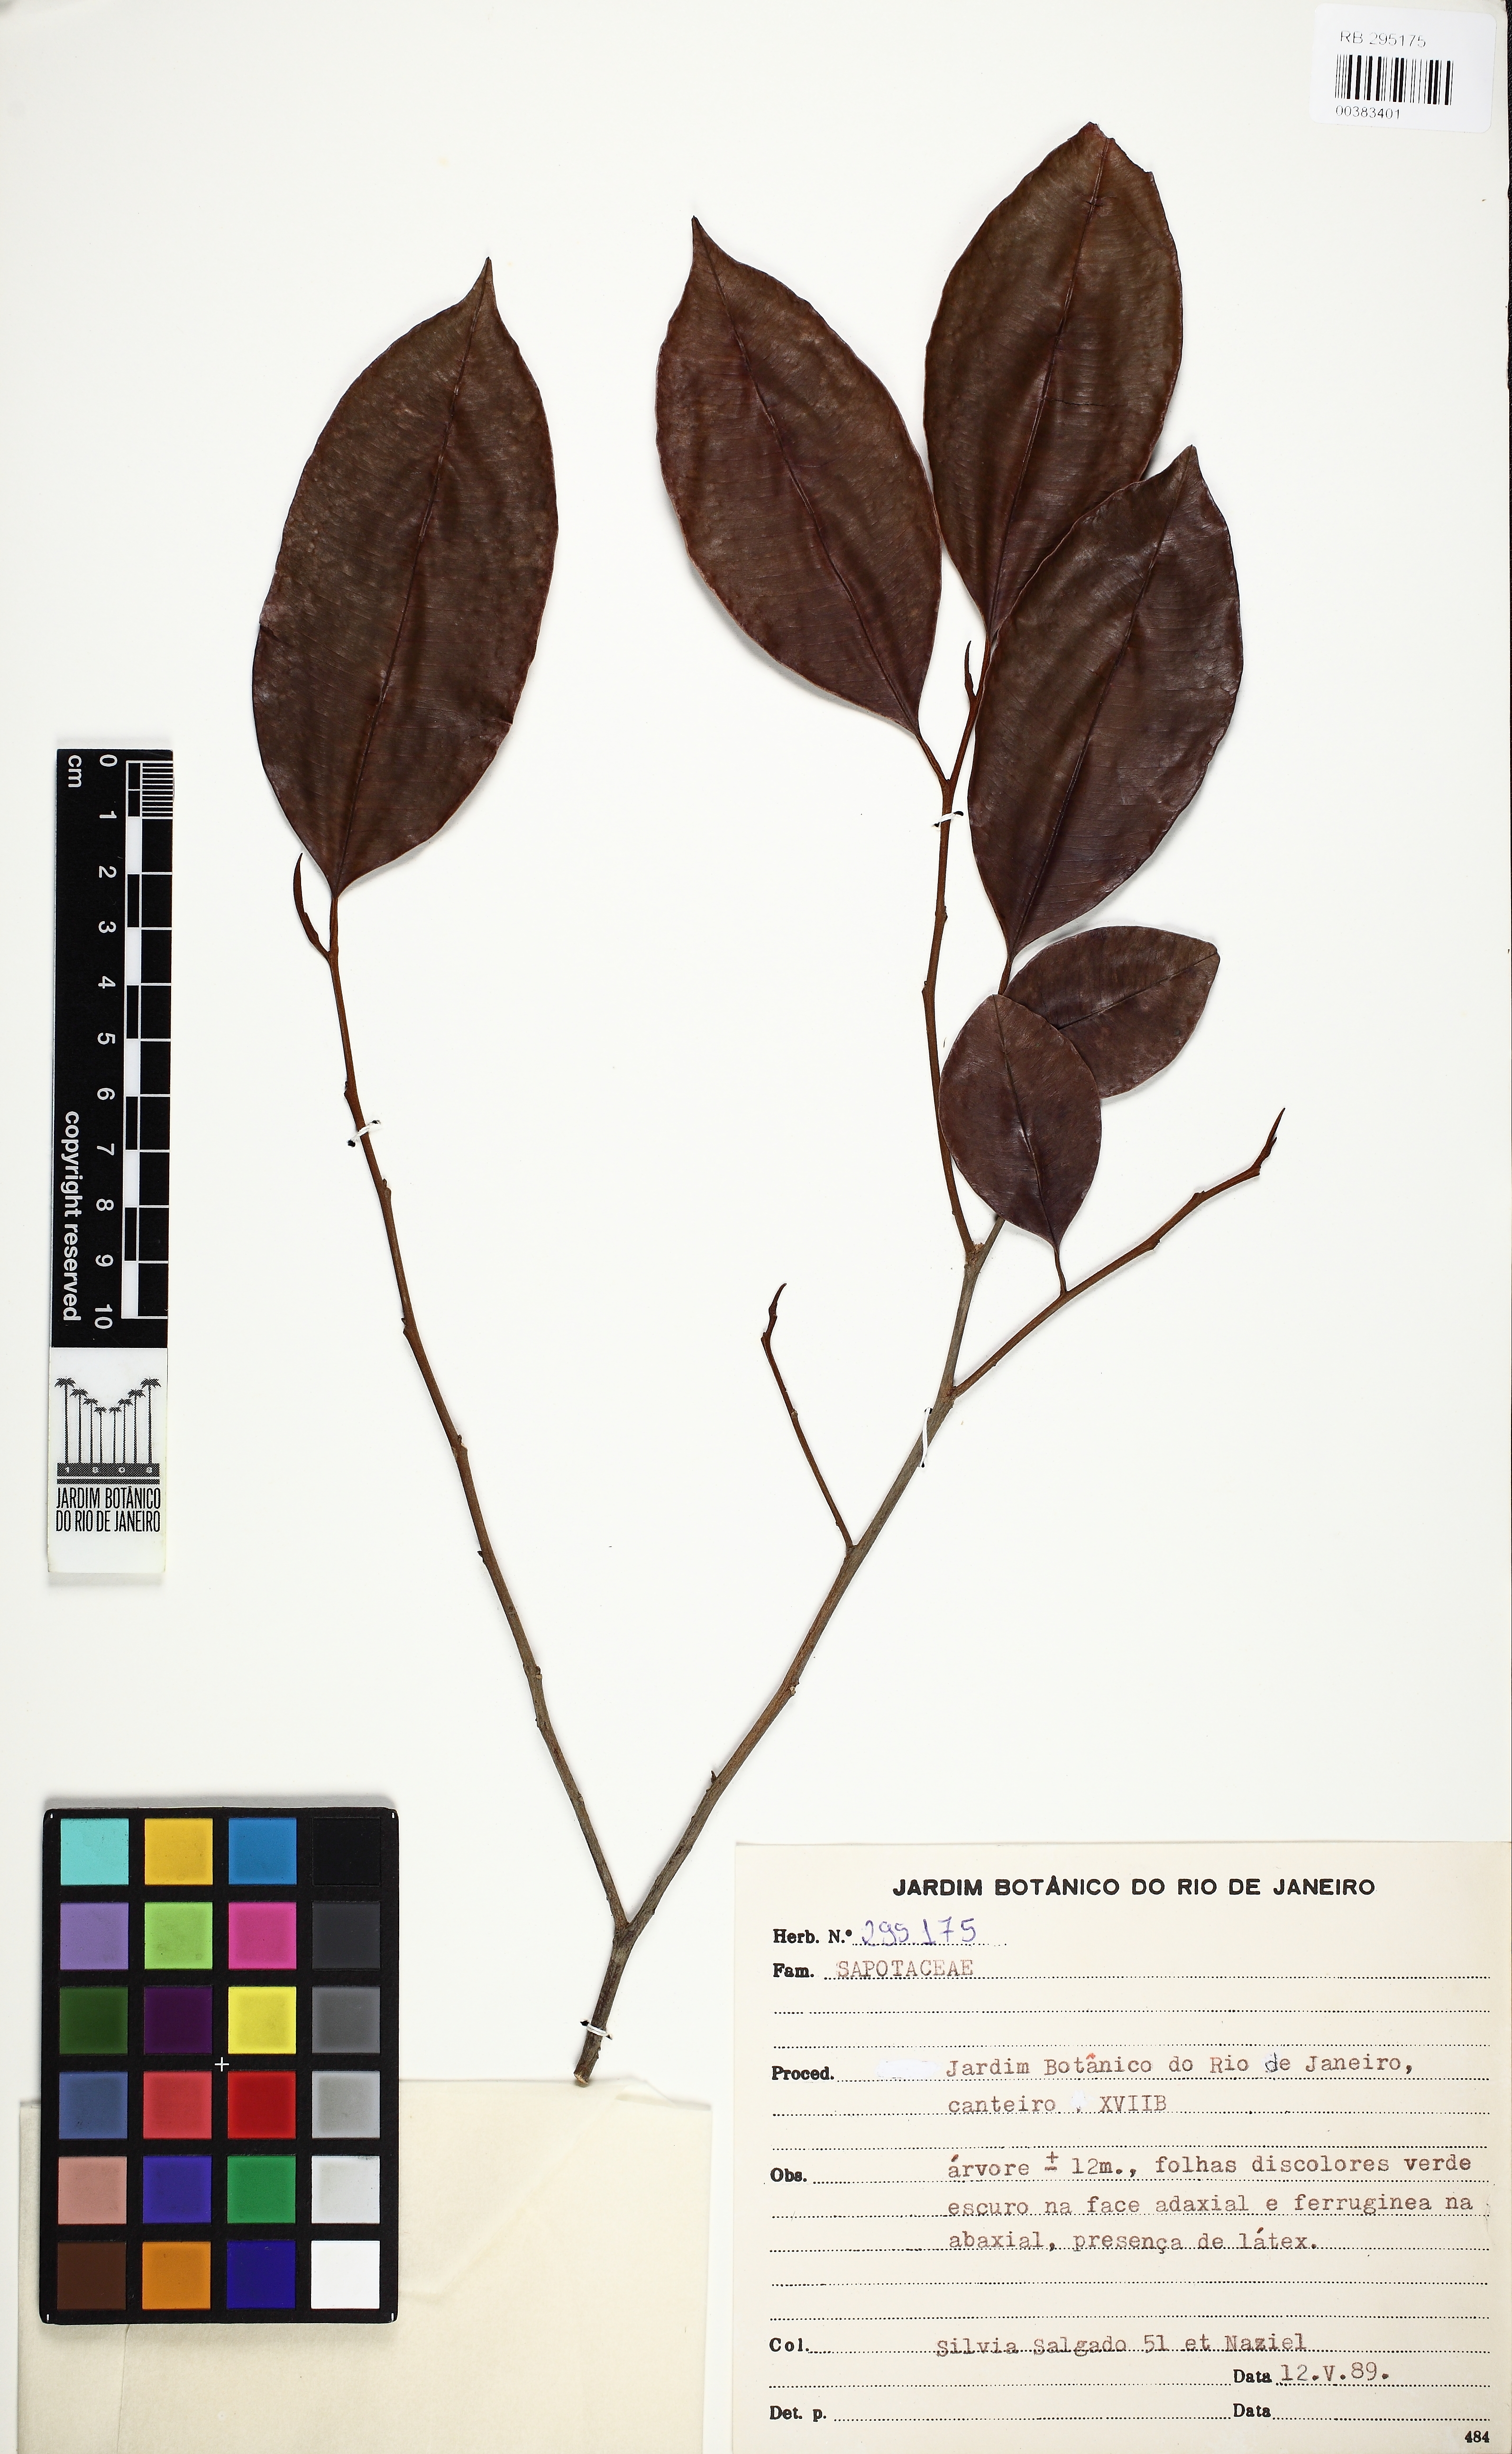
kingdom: Plantae
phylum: Tracheophyta
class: Magnoliopsida
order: Ericales
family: Sapotaceae
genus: Chrysophyllum
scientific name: Chrysophyllum splendens
